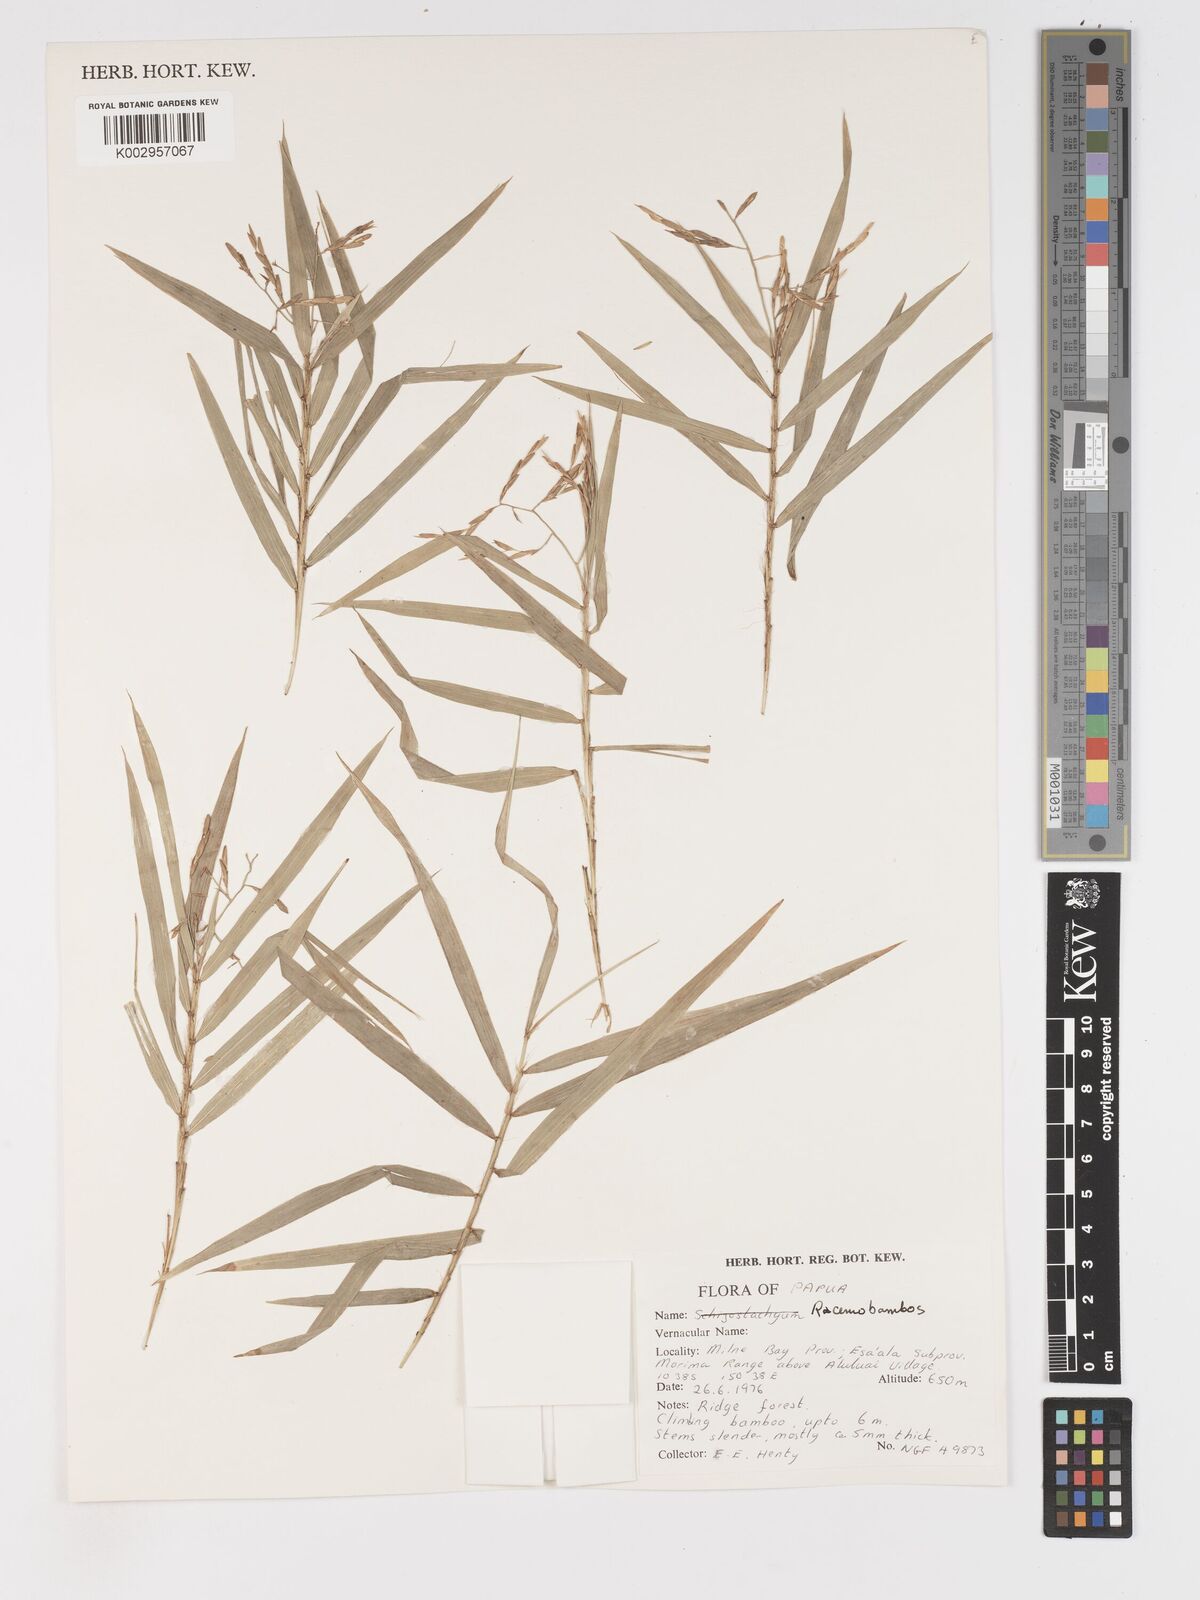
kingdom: Plantae
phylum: Tracheophyta
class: Liliopsida
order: Poales
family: Poaceae
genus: Racemobambos
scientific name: Racemobambos
